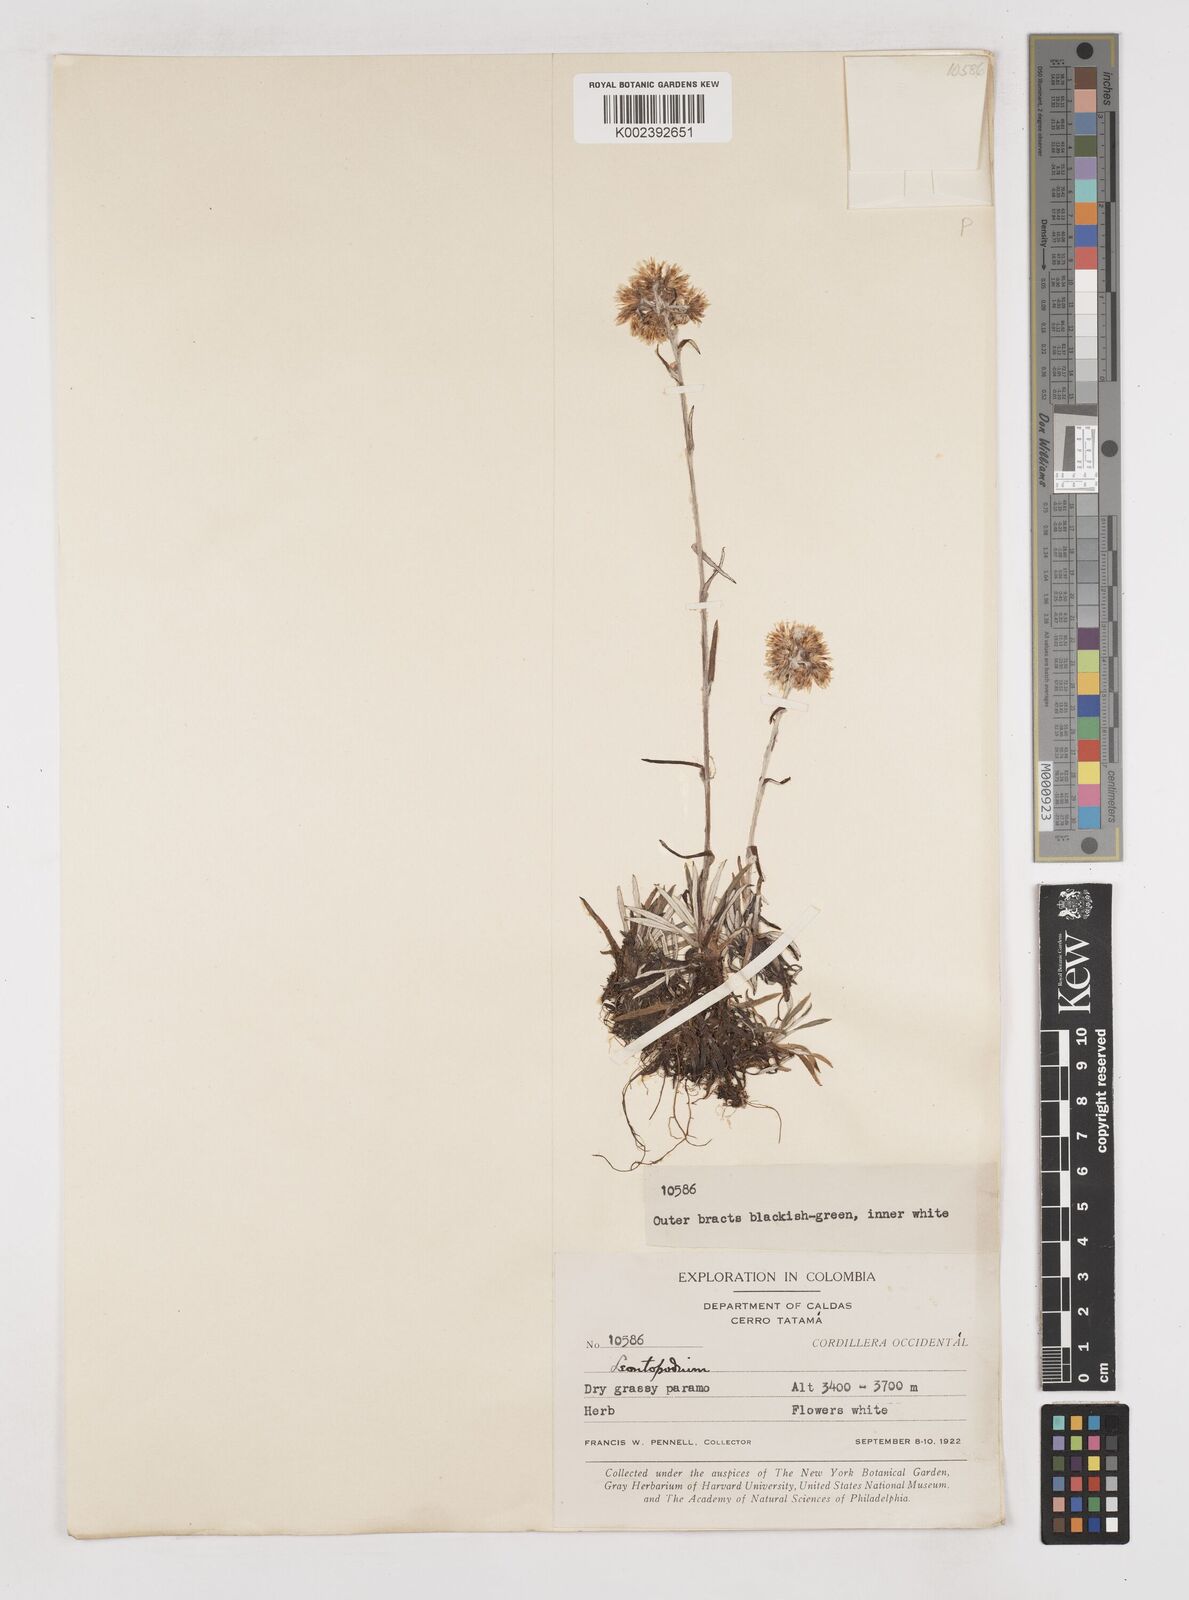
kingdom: Plantae
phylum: Tracheophyta
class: Magnoliopsida
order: Asterales
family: Asteraceae
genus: Gnaphalium
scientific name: Gnaphalium
